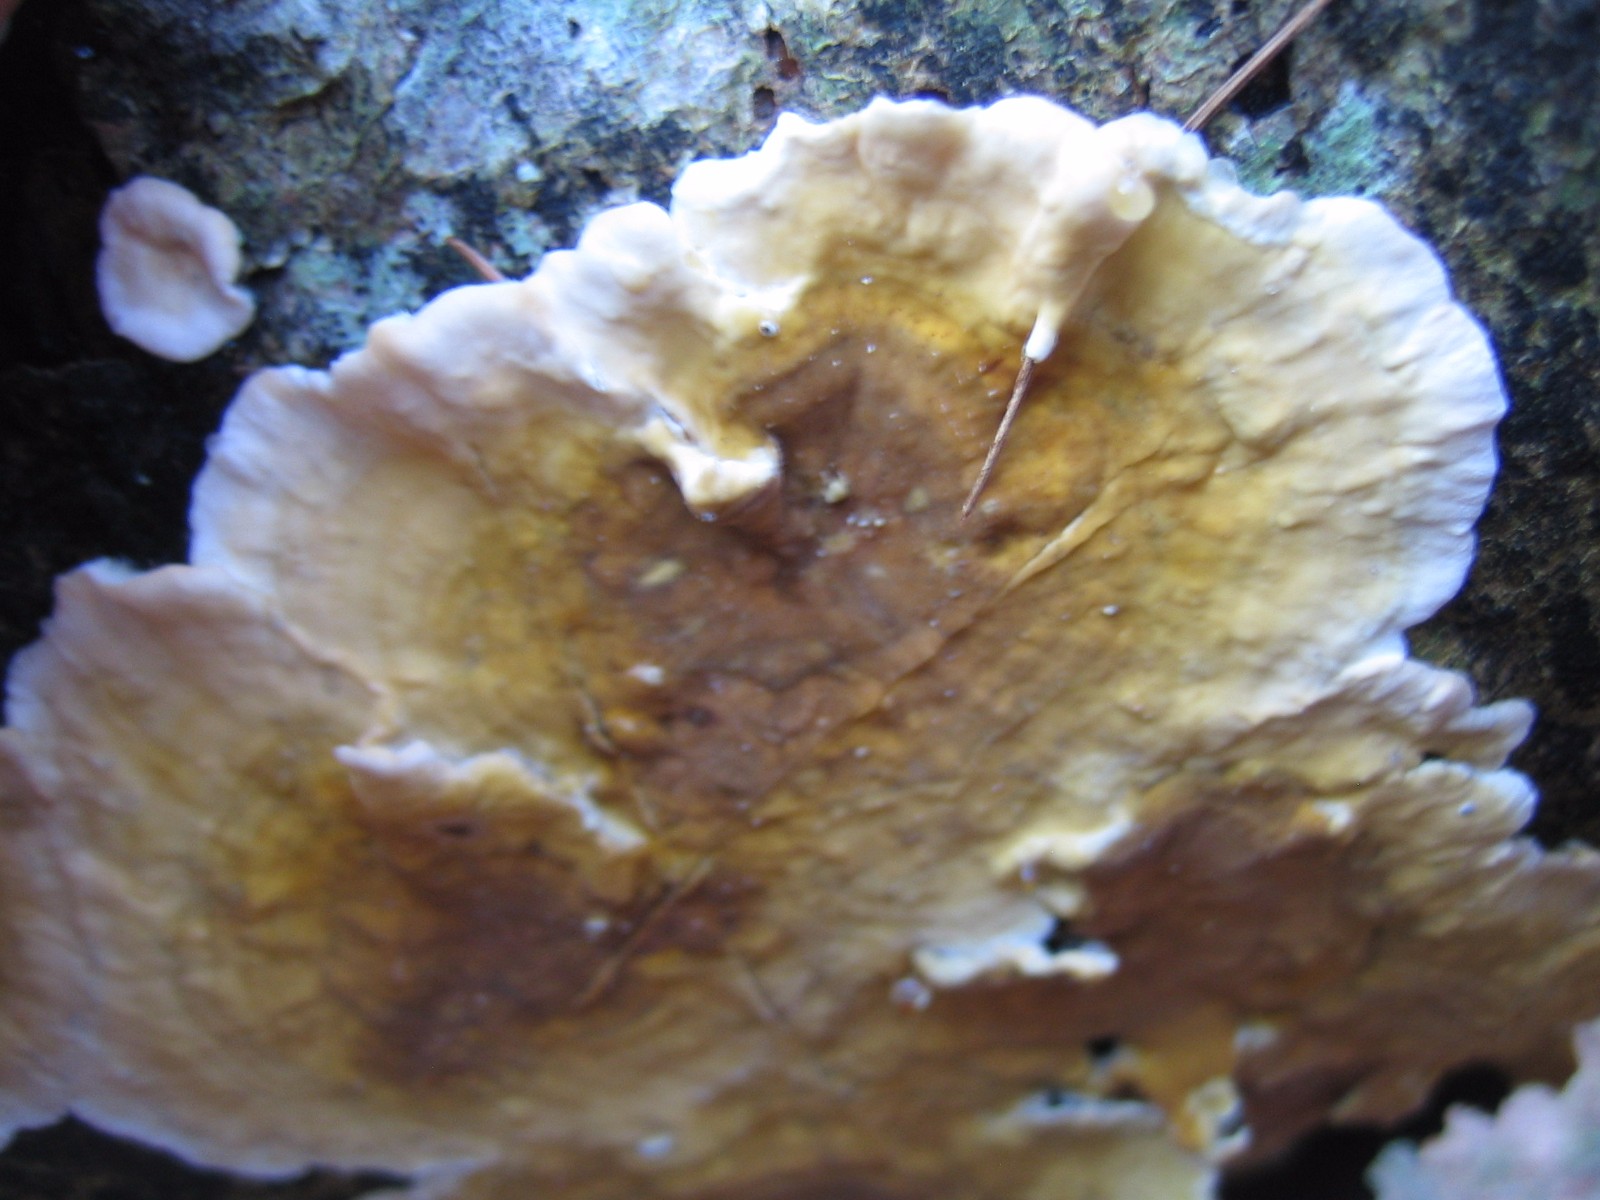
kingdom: Fungi
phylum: Basidiomycota
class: Agaricomycetes
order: Russulales
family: Stereaceae
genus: Stereum
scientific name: Stereum hirsutum
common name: håret lædersvamp
